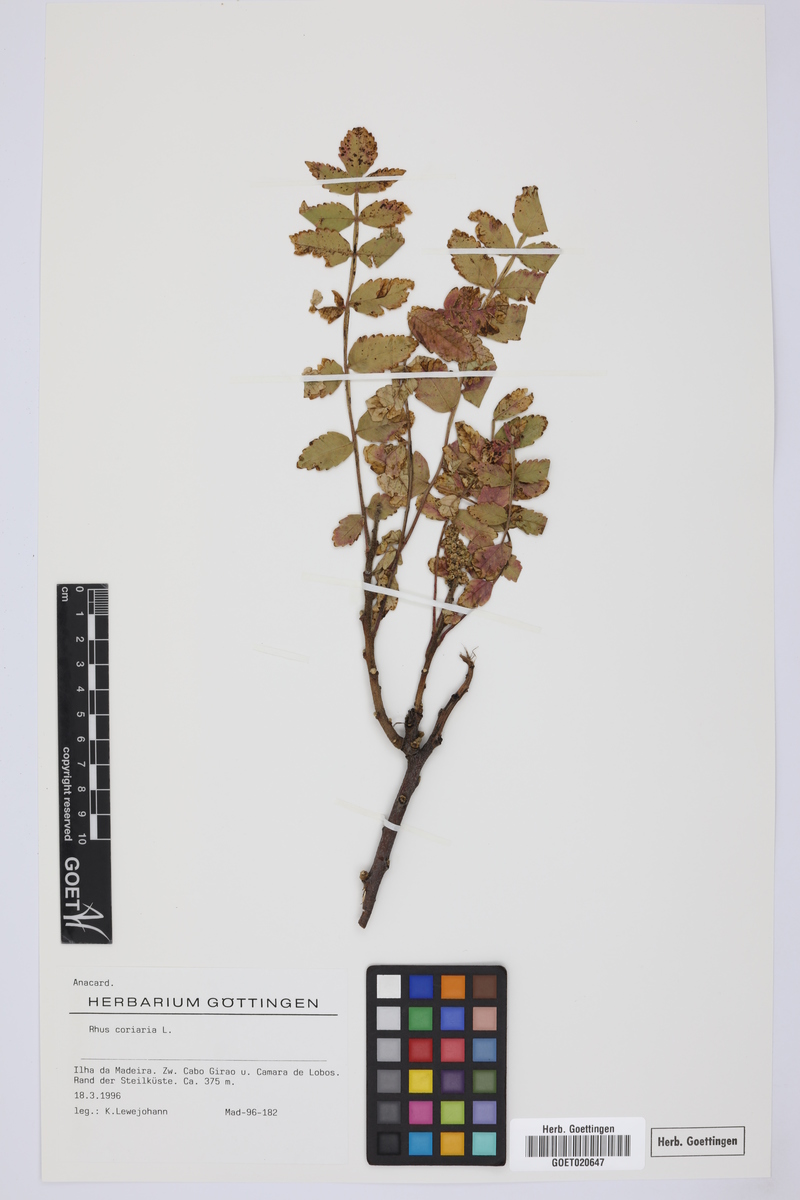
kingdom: Plantae
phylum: Tracheophyta
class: Magnoliopsida
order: Sapindales
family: Anacardiaceae
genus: Rhus
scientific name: Rhus coriaria
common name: Tanner's sumach
